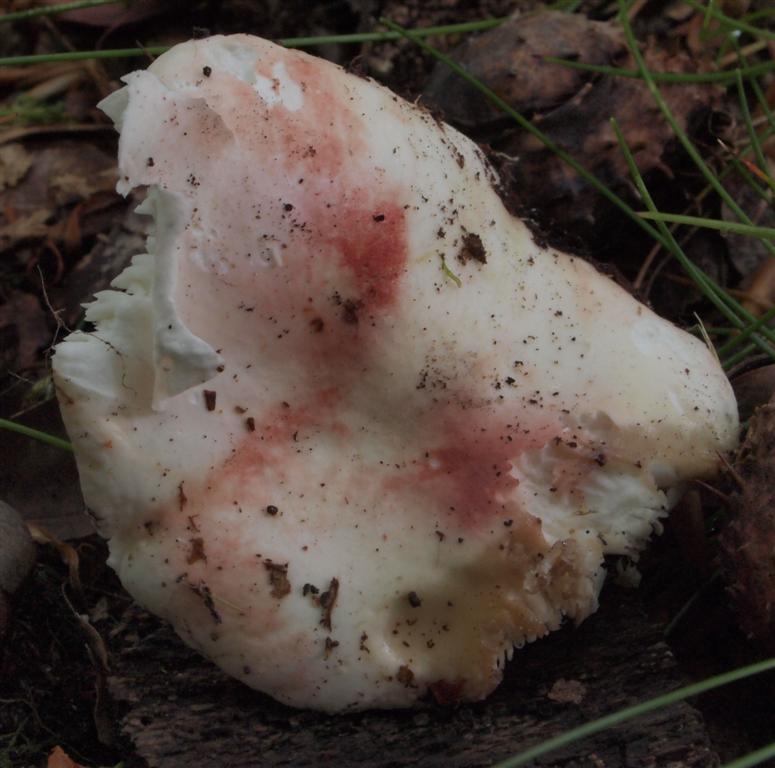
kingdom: Fungi
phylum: Basidiomycota
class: Agaricomycetes
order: Russulales
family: Russulaceae
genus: Russula
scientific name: Russula aurora
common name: rosa skørhat
